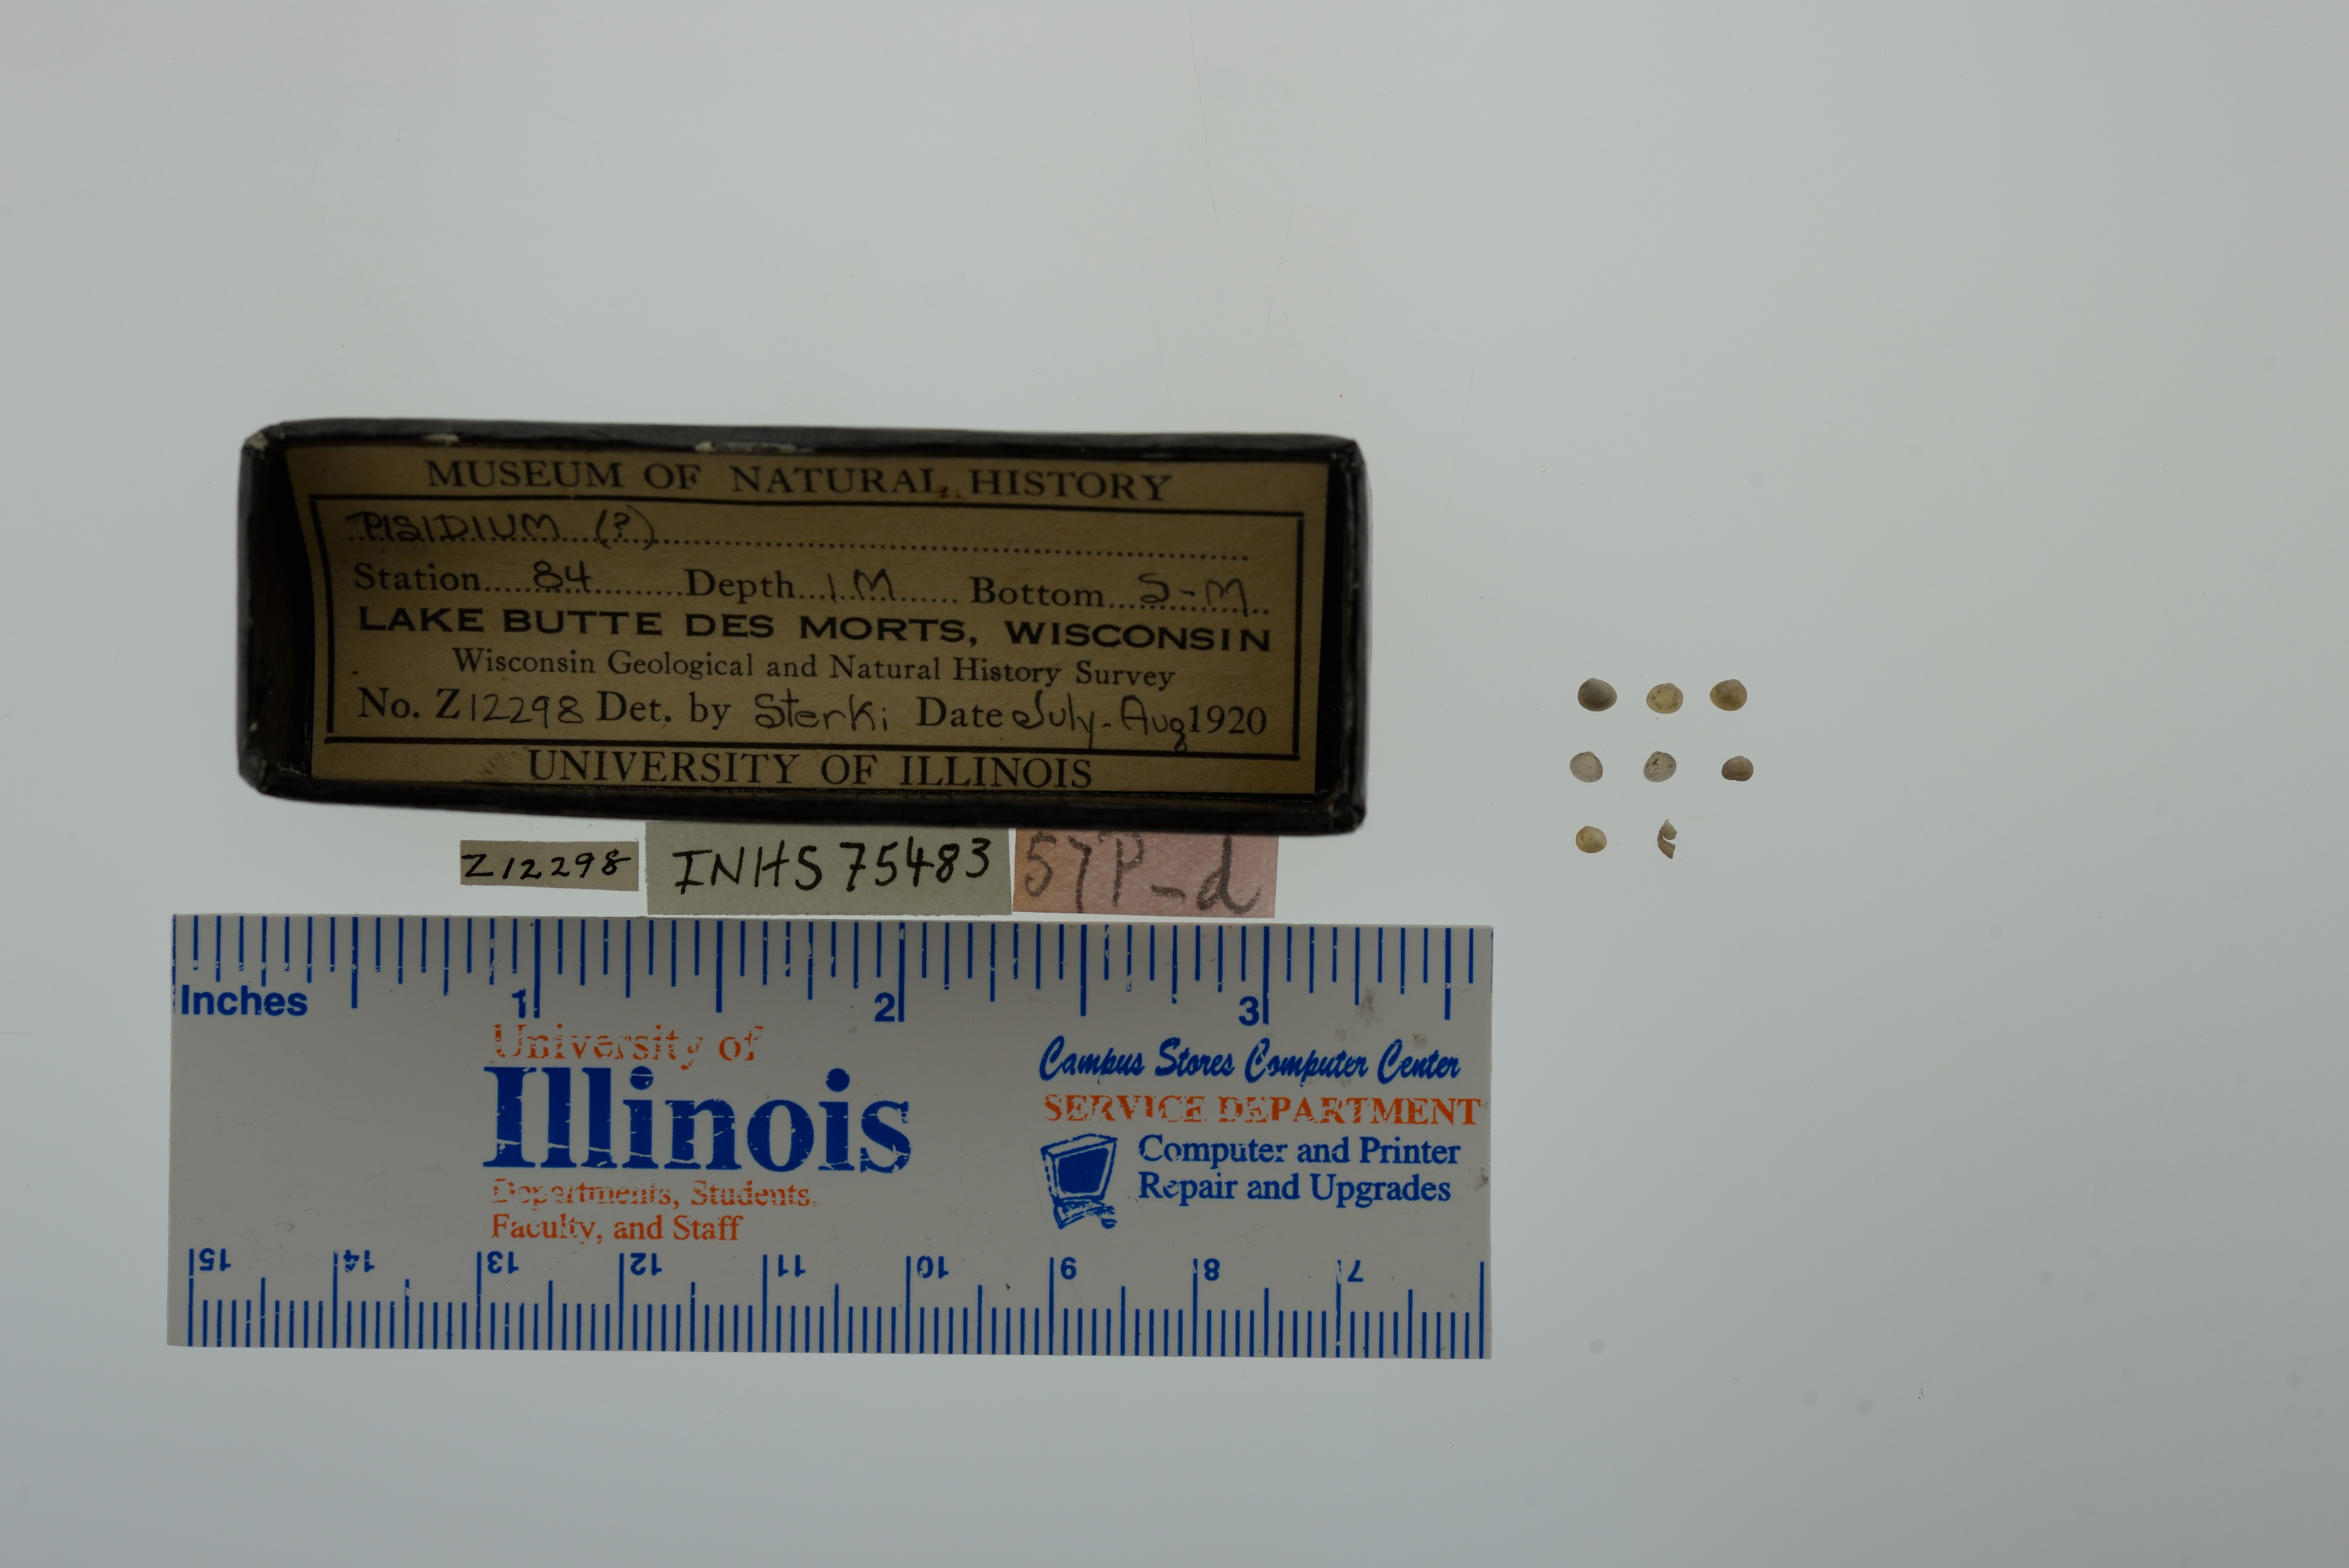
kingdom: Animalia
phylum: Mollusca
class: Bivalvia
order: Sphaeriida
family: Sphaeriidae
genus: Pisidium
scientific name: Pisidium
